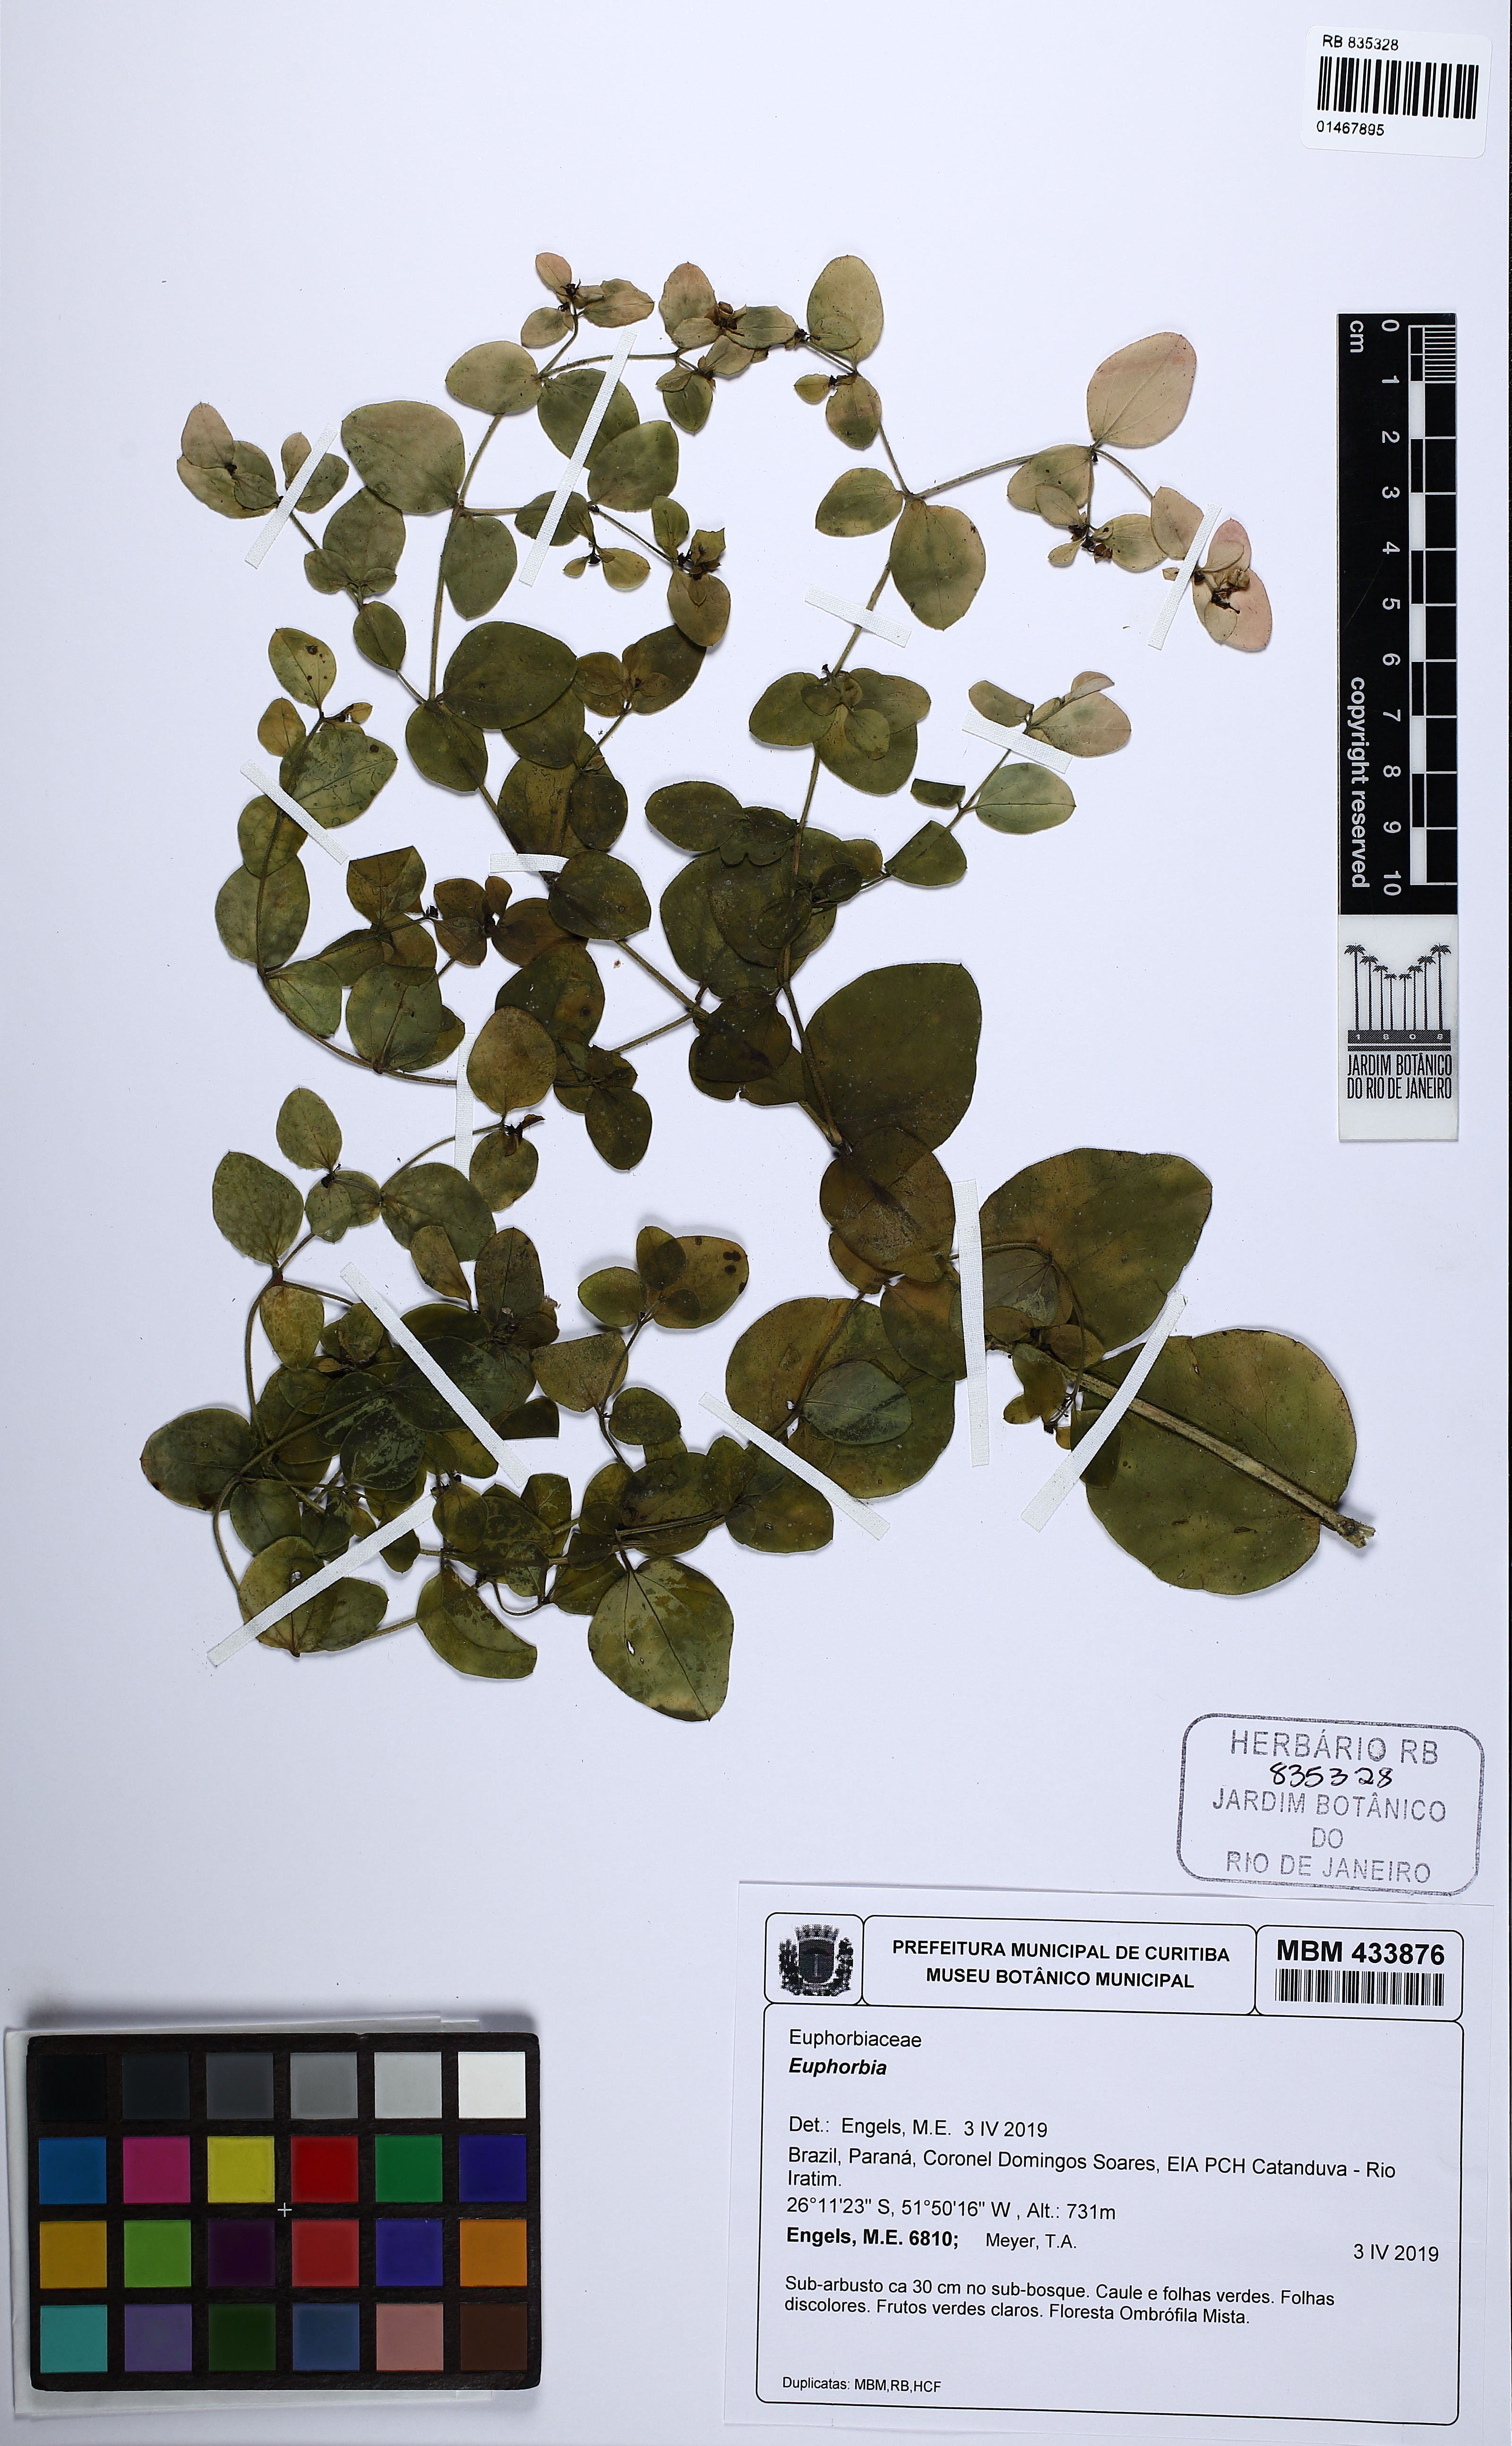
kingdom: Plantae
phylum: Tracheophyta
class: Magnoliopsida
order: Malpighiales
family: Euphorbiaceae
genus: Euphorbia
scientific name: Euphorbia paranensis
